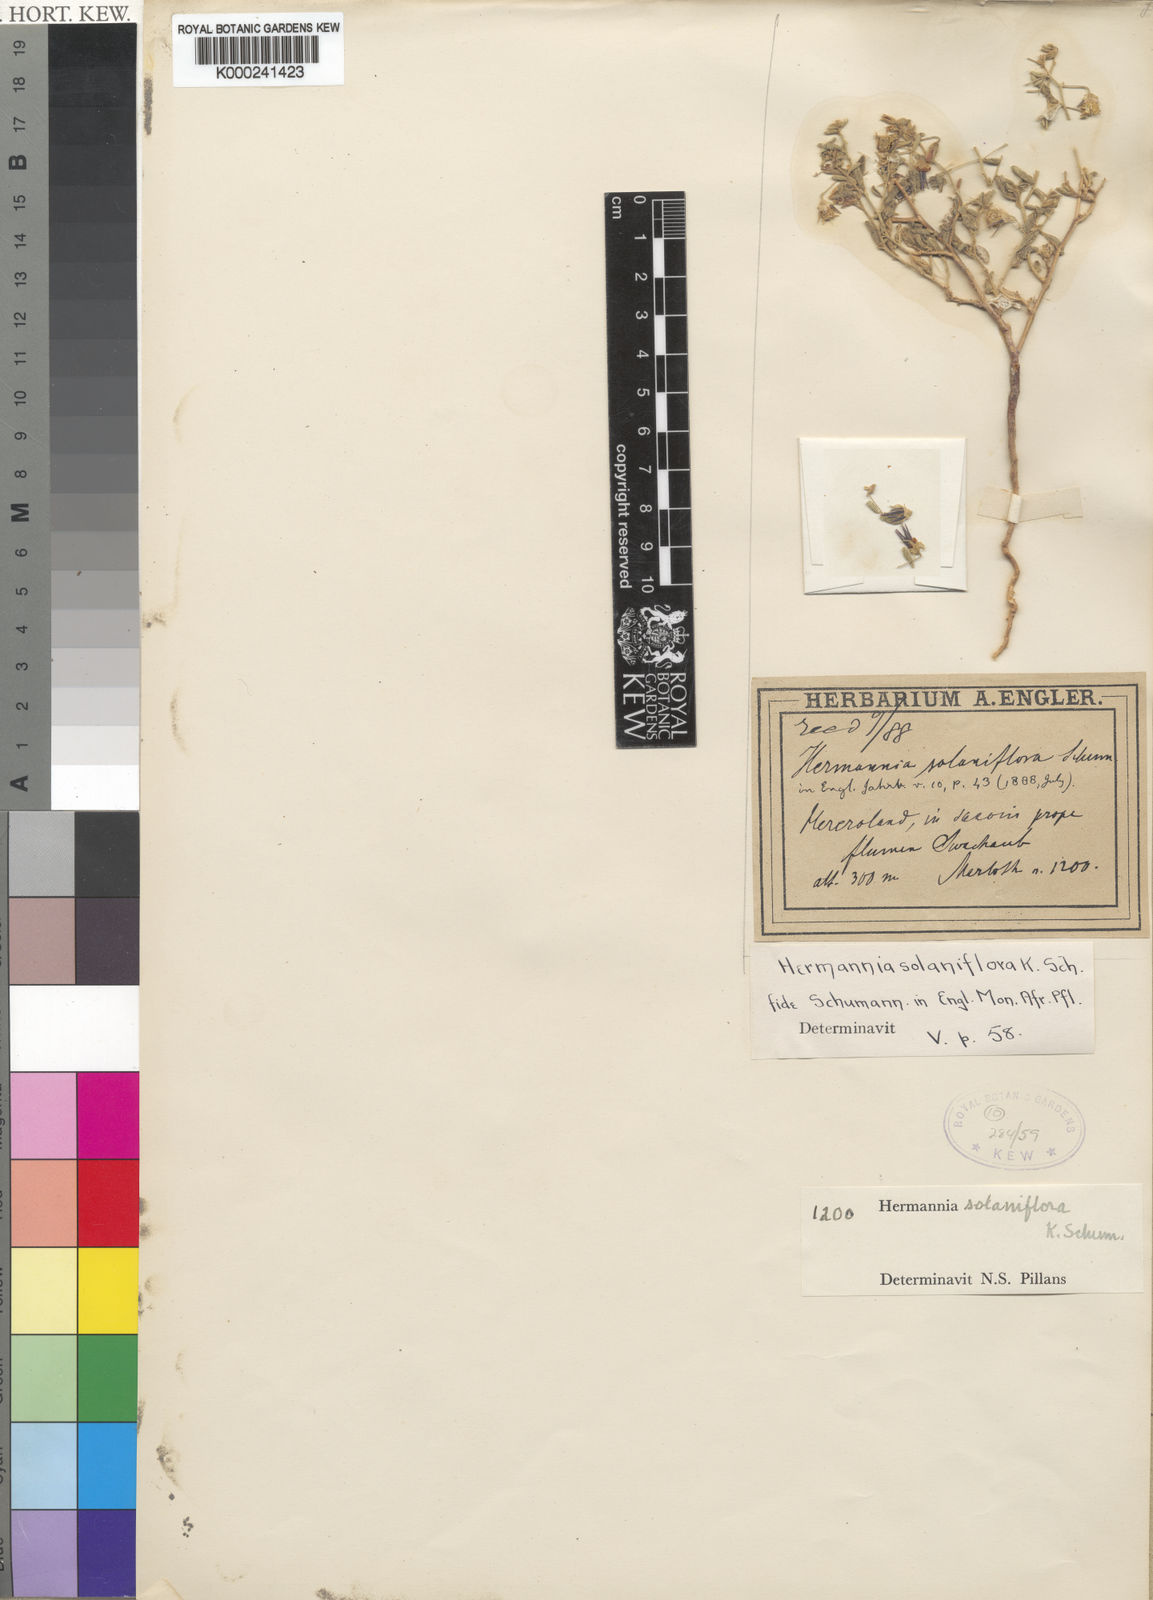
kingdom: Plantae
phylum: Tracheophyta
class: Magnoliopsida
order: Malvales
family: Malvaceae
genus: Hermannia
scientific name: Hermannia solaniflora
